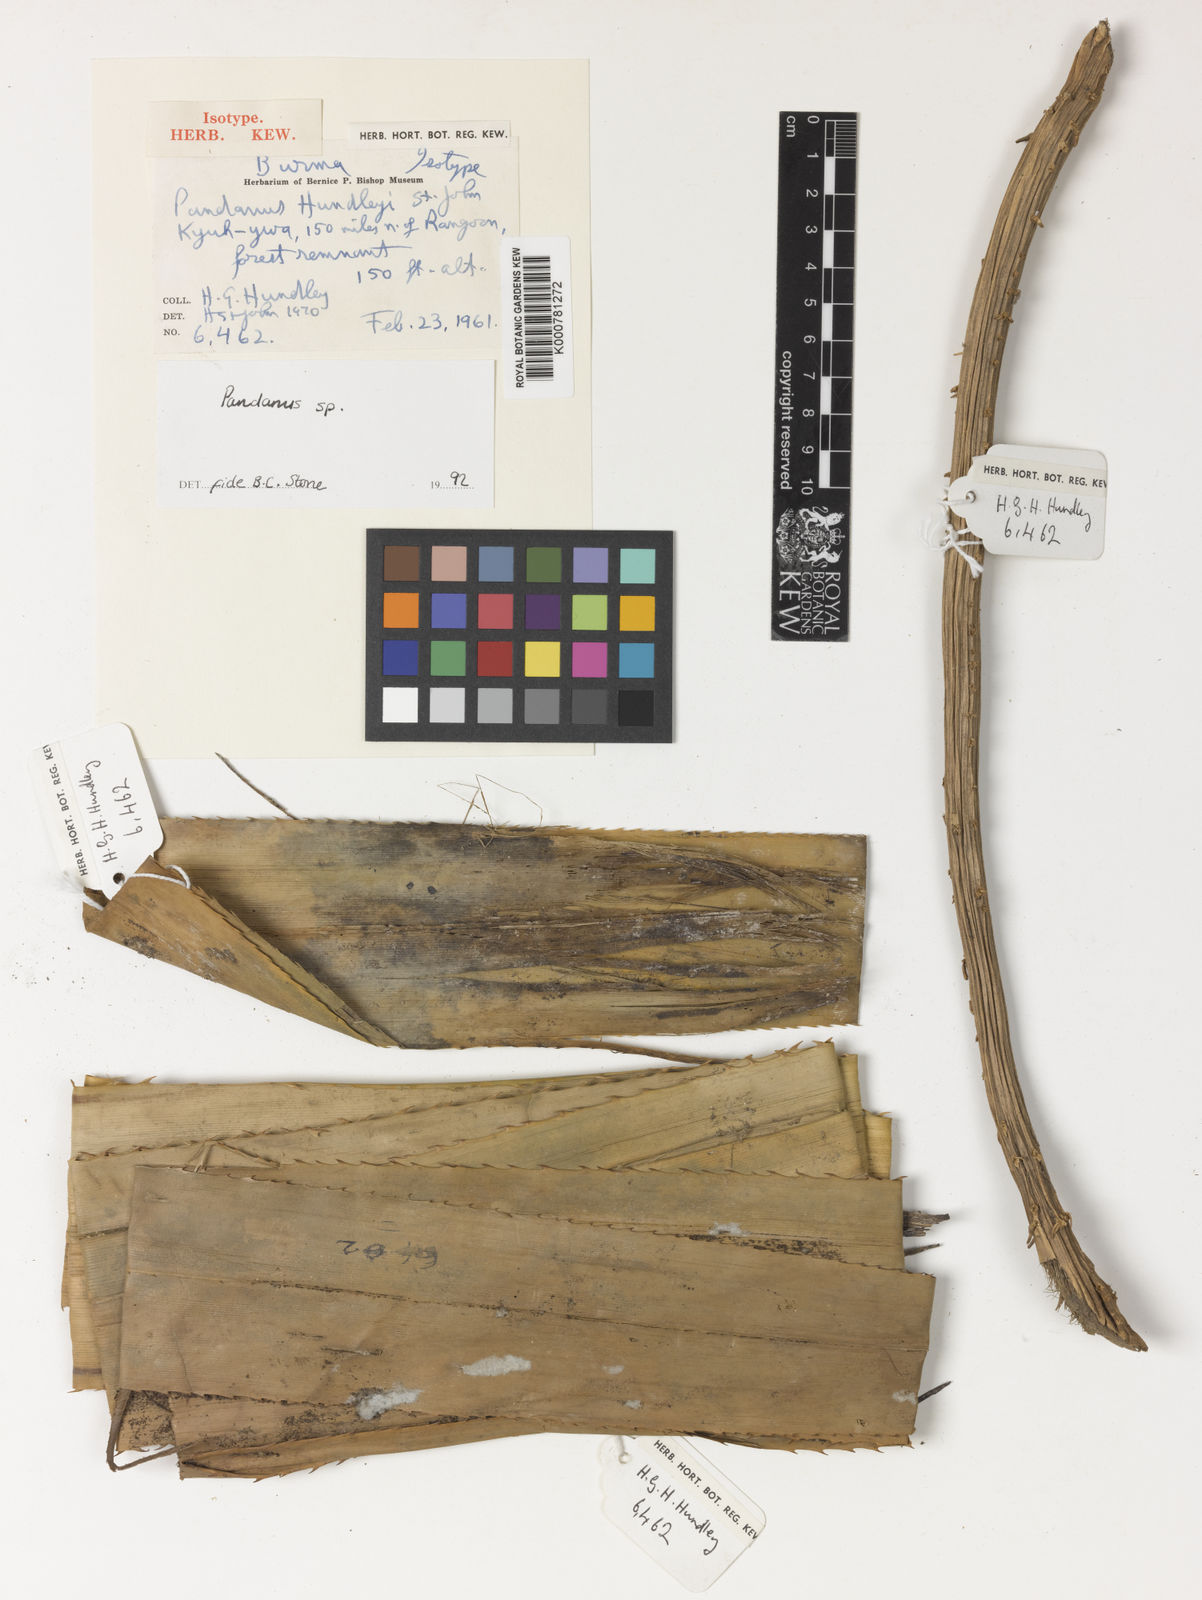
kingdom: Plantae
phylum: Tracheophyta
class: Liliopsida
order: Pandanales
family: Pandanaceae
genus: Pandanus
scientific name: Pandanus penangensis
